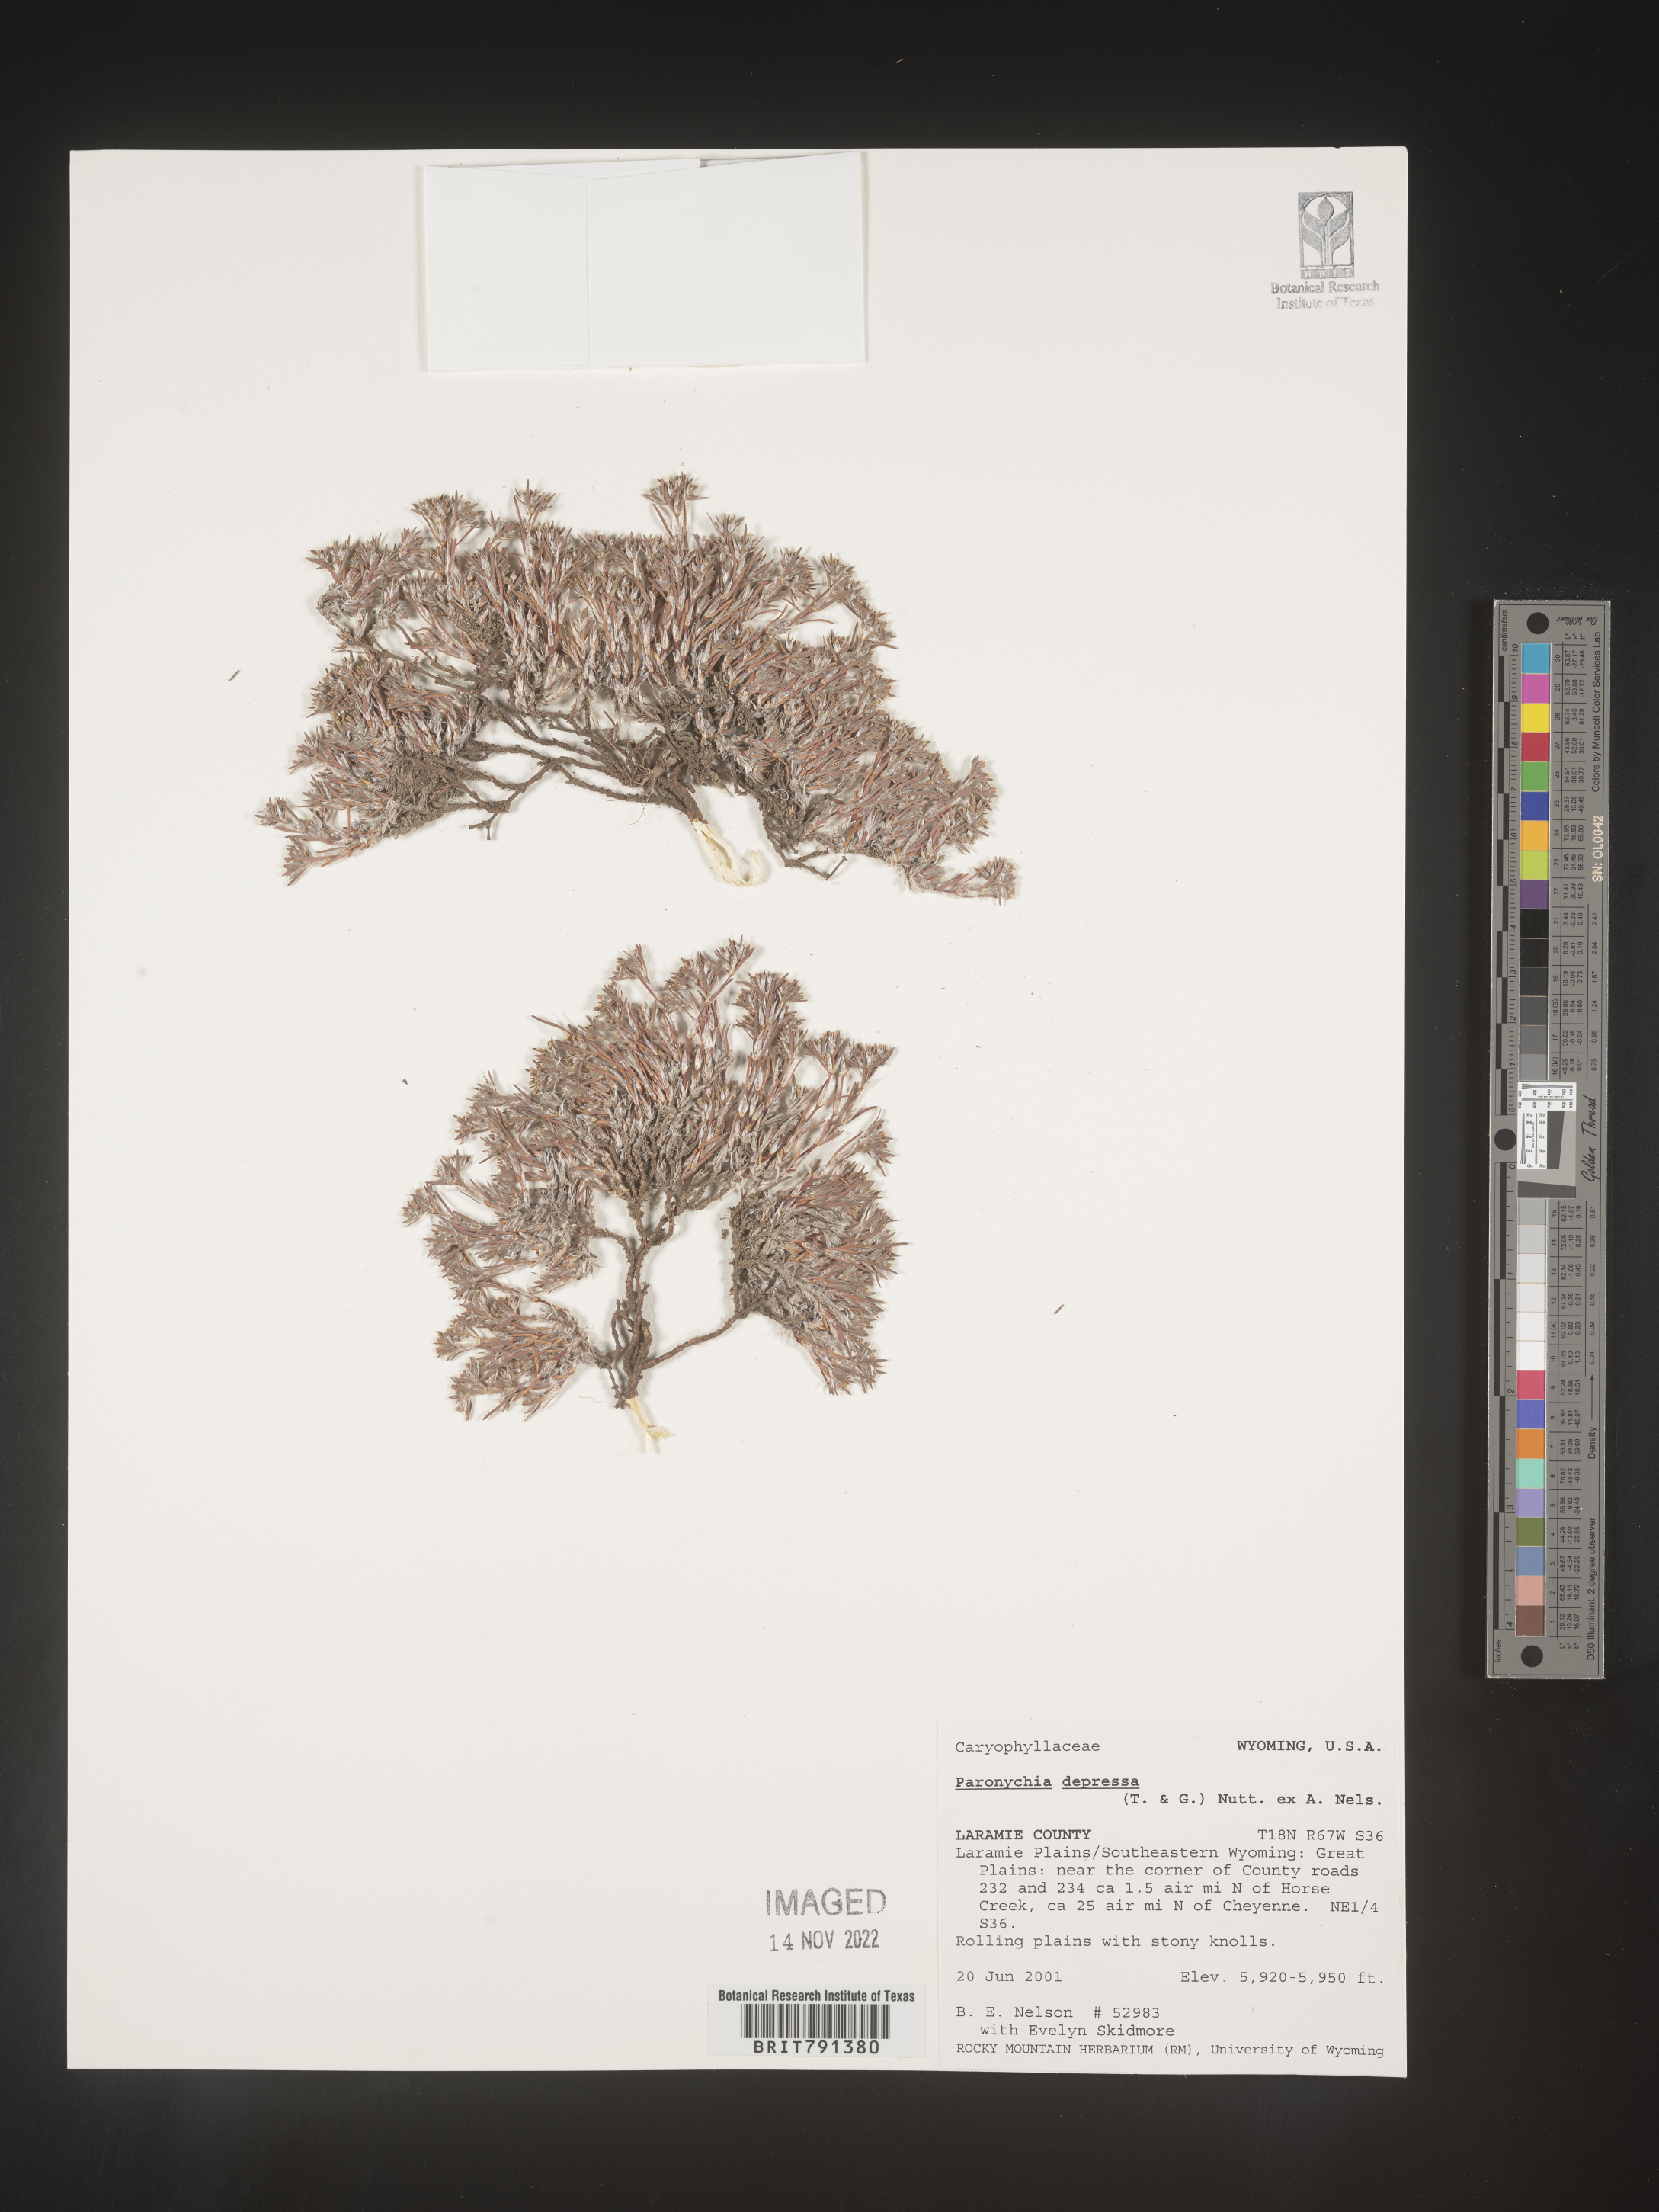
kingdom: Plantae
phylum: Tracheophyta
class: Magnoliopsida
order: Caryophyllales
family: Caryophyllaceae
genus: Paronychia
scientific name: Paronychia
